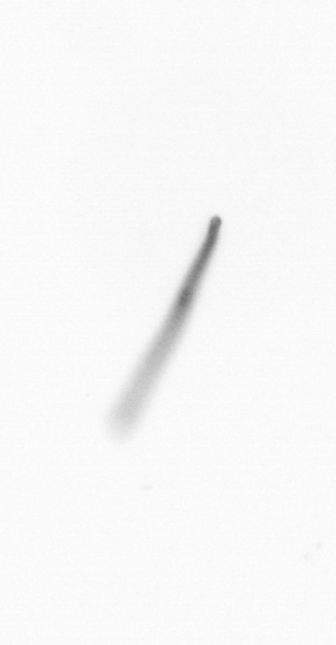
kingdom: Chromista
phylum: Ochrophyta
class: Bacillariophyceae
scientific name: Bacillariophyceae
